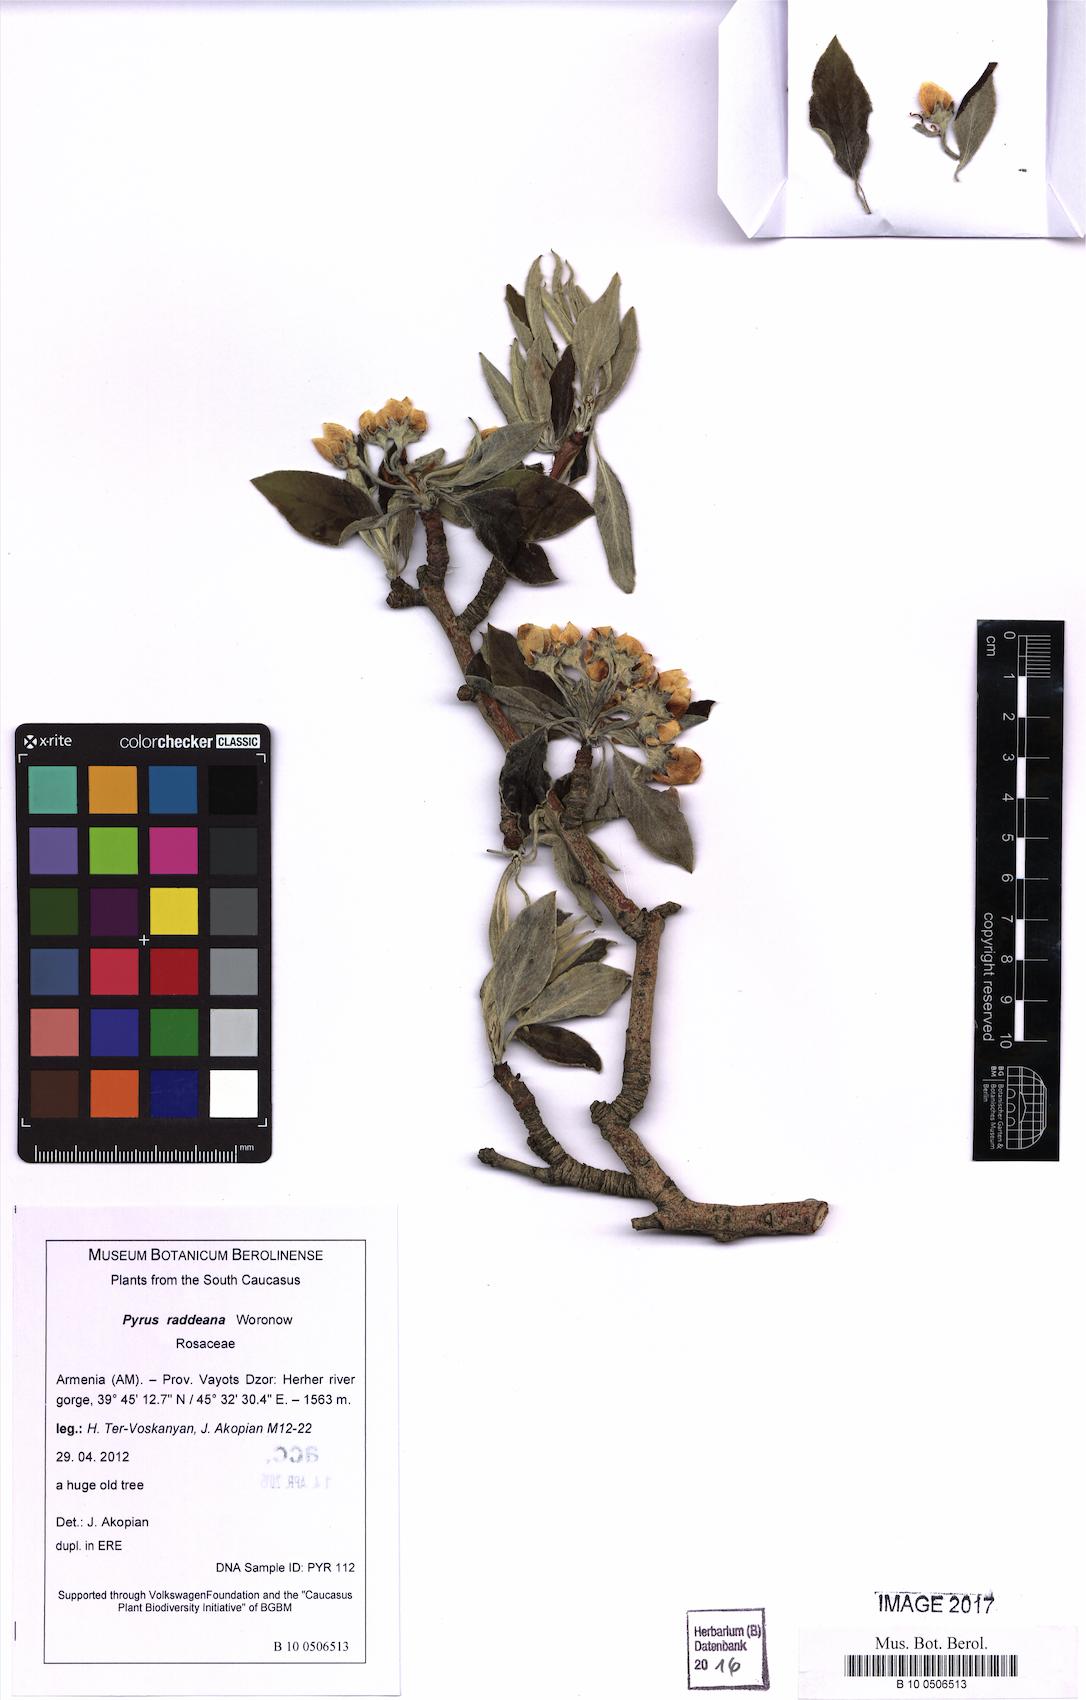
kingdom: Plantae
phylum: Tracheophyta
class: Magnoliopsida
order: Rosales
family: Rosaceae
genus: Pyrus
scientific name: Pyrus raddeana
